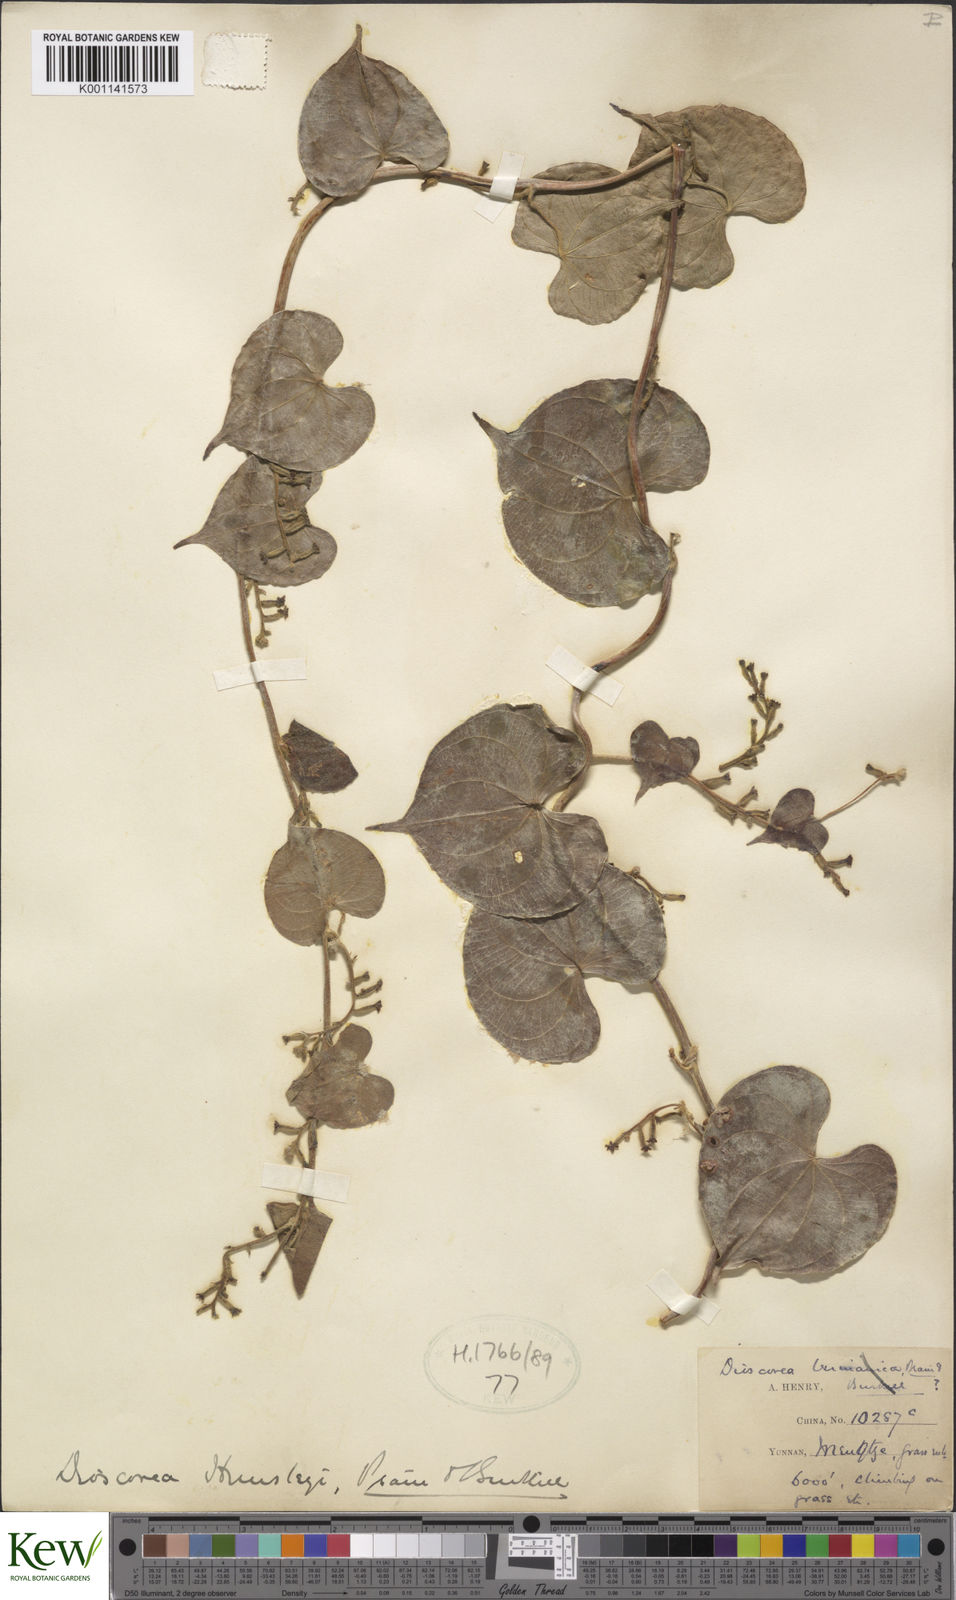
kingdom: Plantae
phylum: Tracheophyta
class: Liliopsida
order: Dioscoreales
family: Dioscoreaceae
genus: Dioscorea
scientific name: Dioscorea hemsleyi
